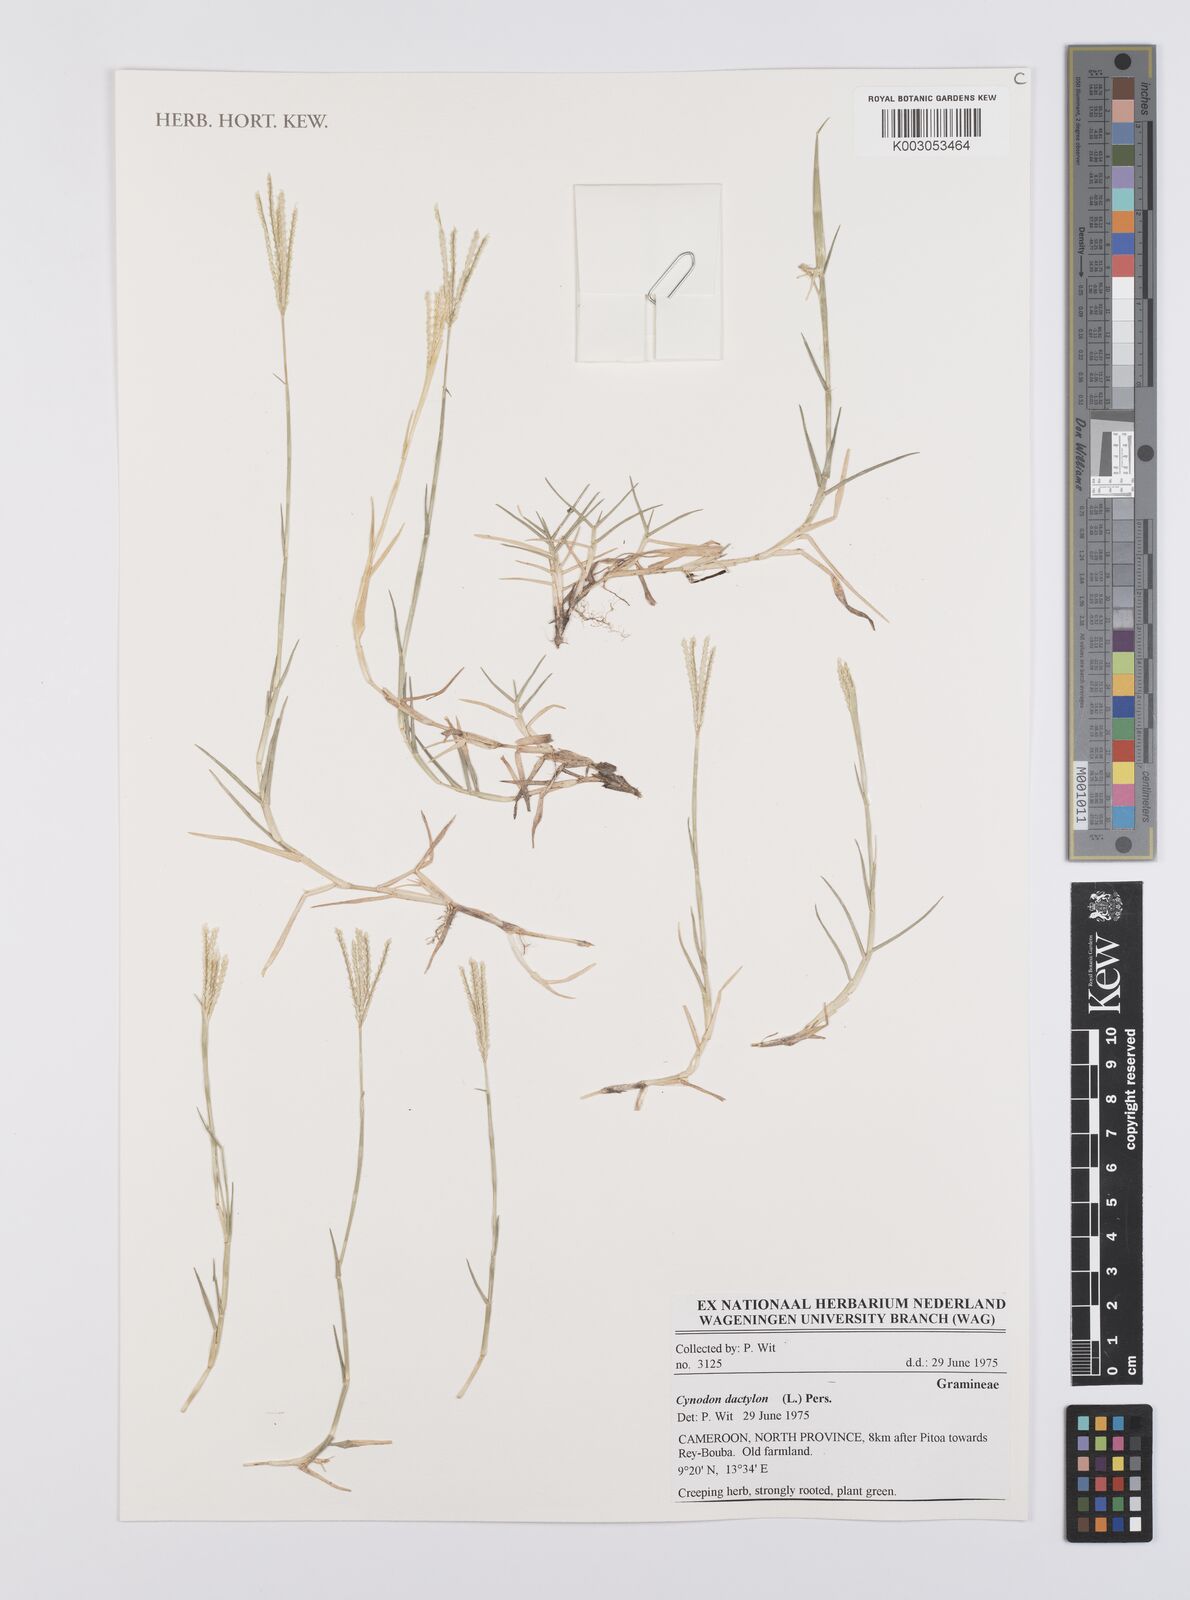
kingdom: Plantae
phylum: Tracheophyta
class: Liliopsida
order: Poales
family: Poaceae
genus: Cynodon
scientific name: Cynodon dactylon
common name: Bermuda grass
